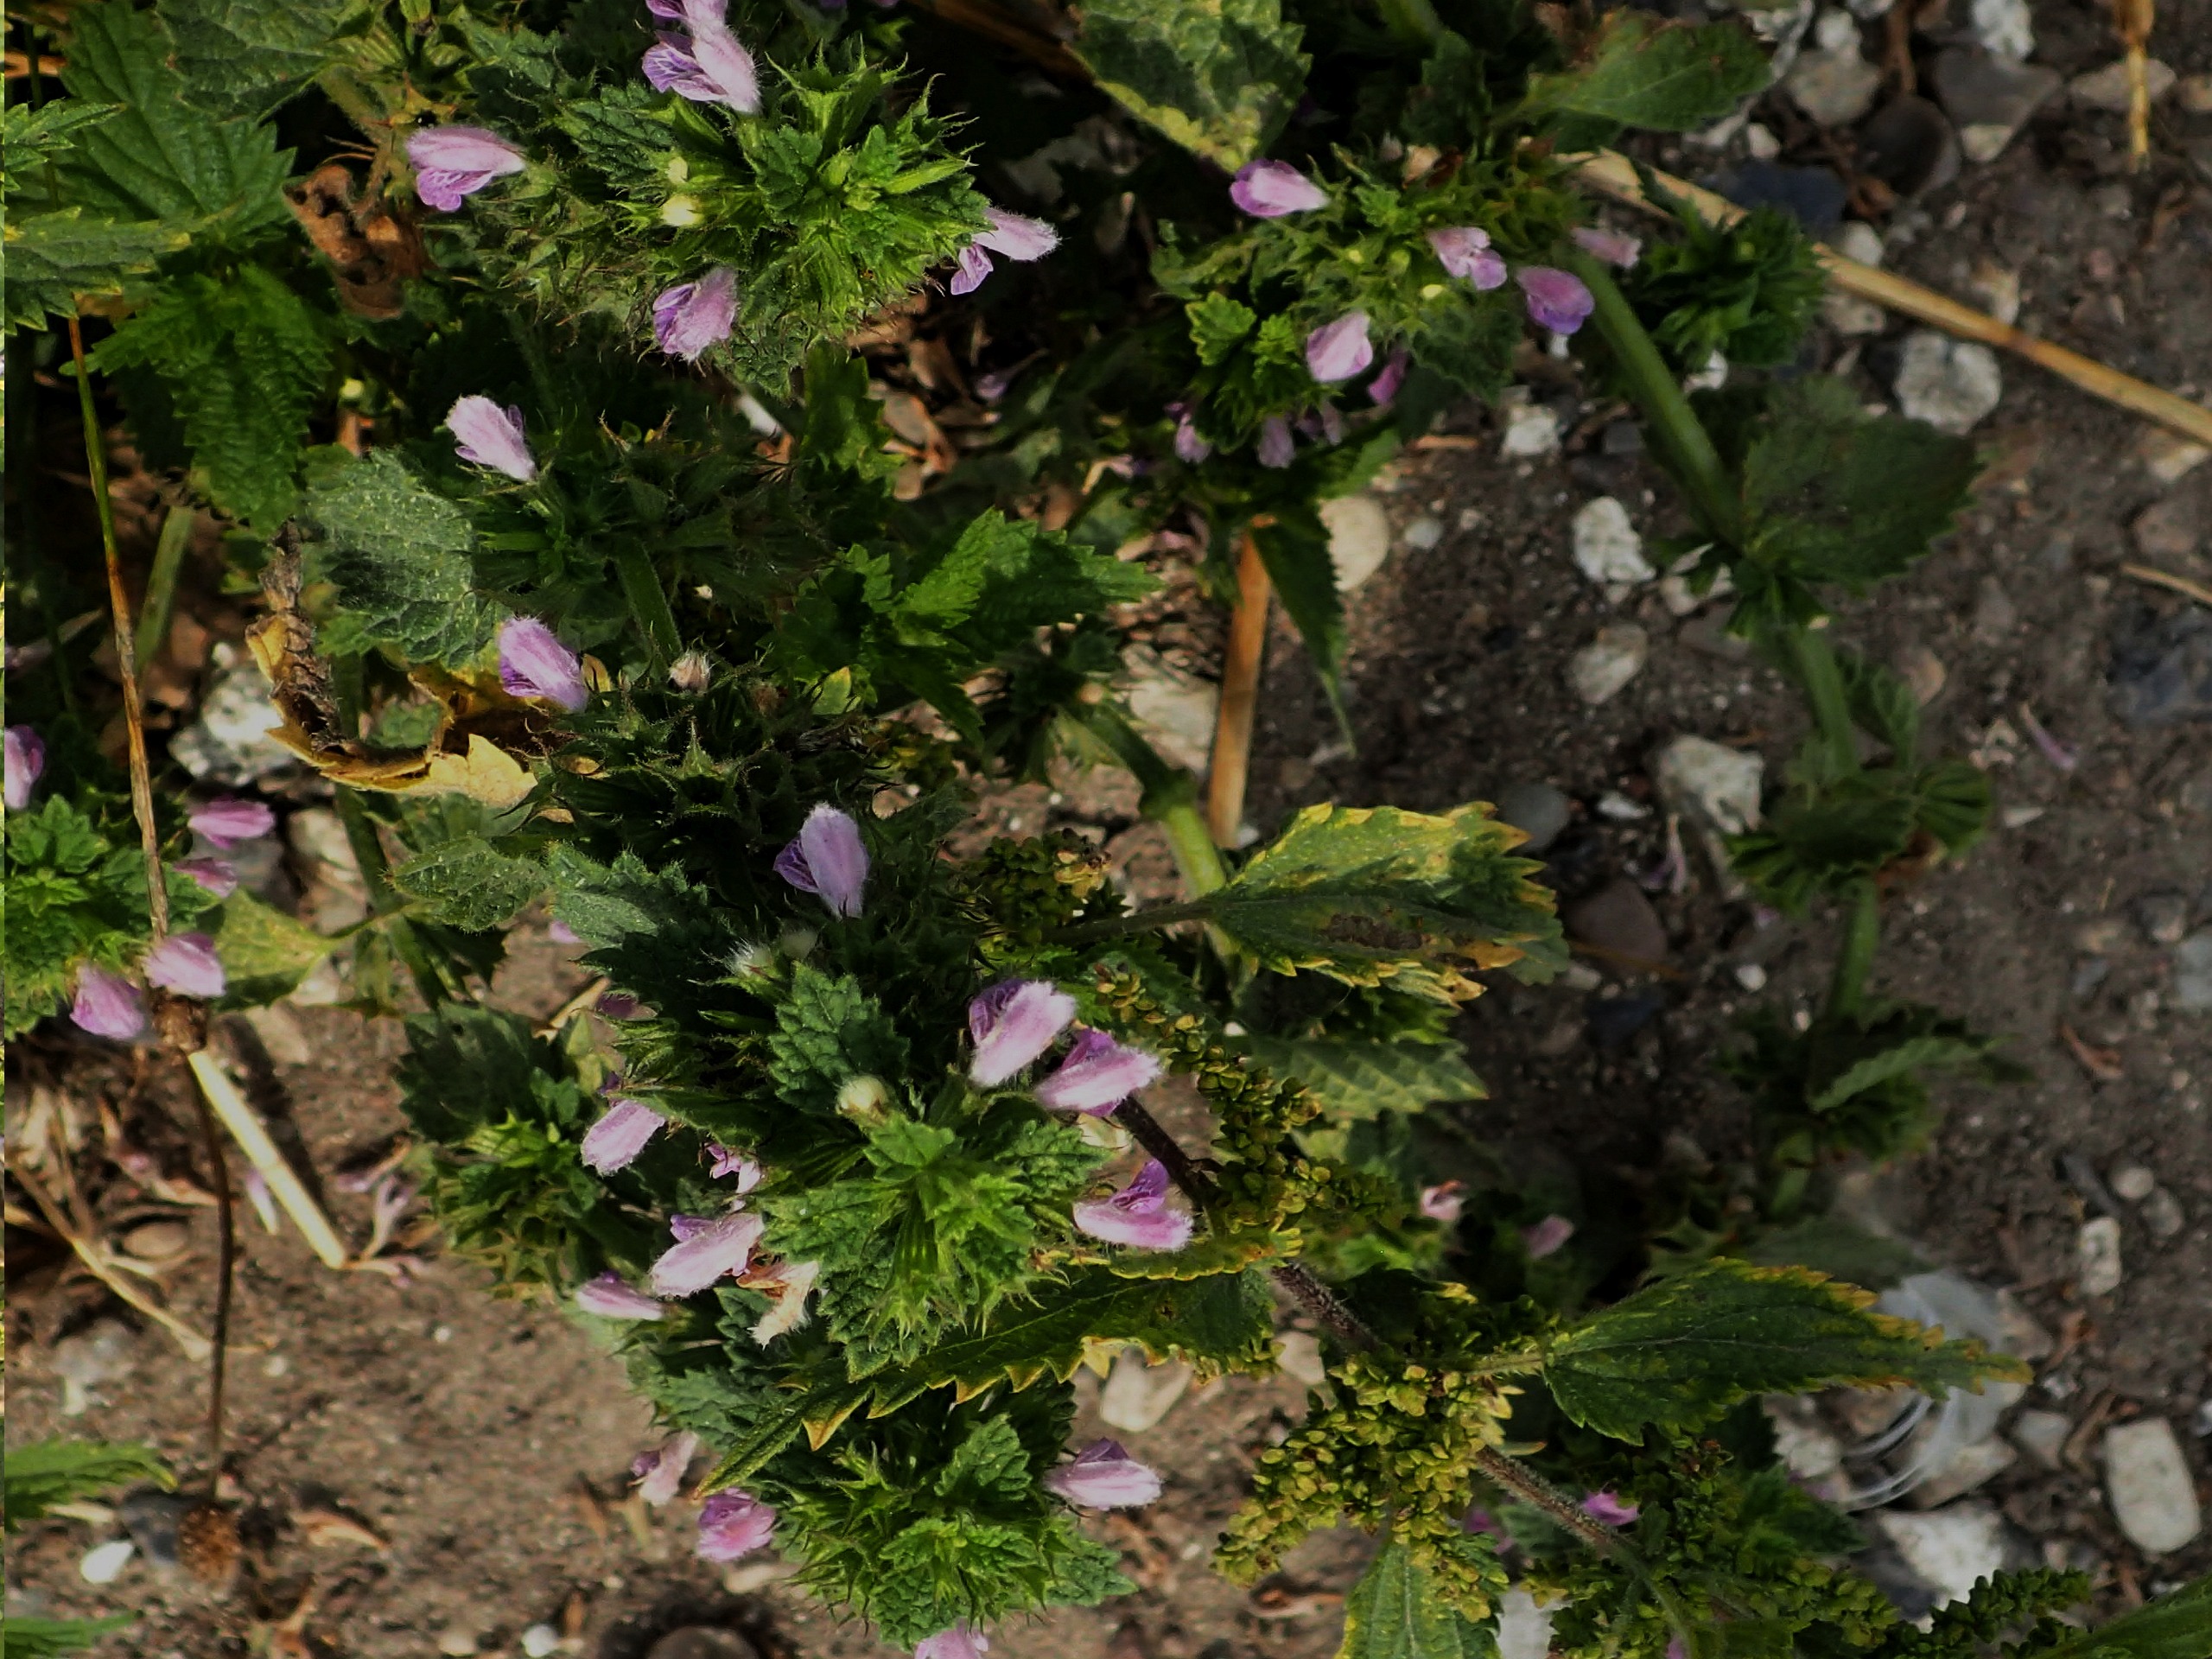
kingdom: Plantae
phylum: Tracheophyta
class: Magnoliopsida
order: Lamiales
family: Lamiaceae
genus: Ballota
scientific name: Ballota nigra
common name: Tandbæger
